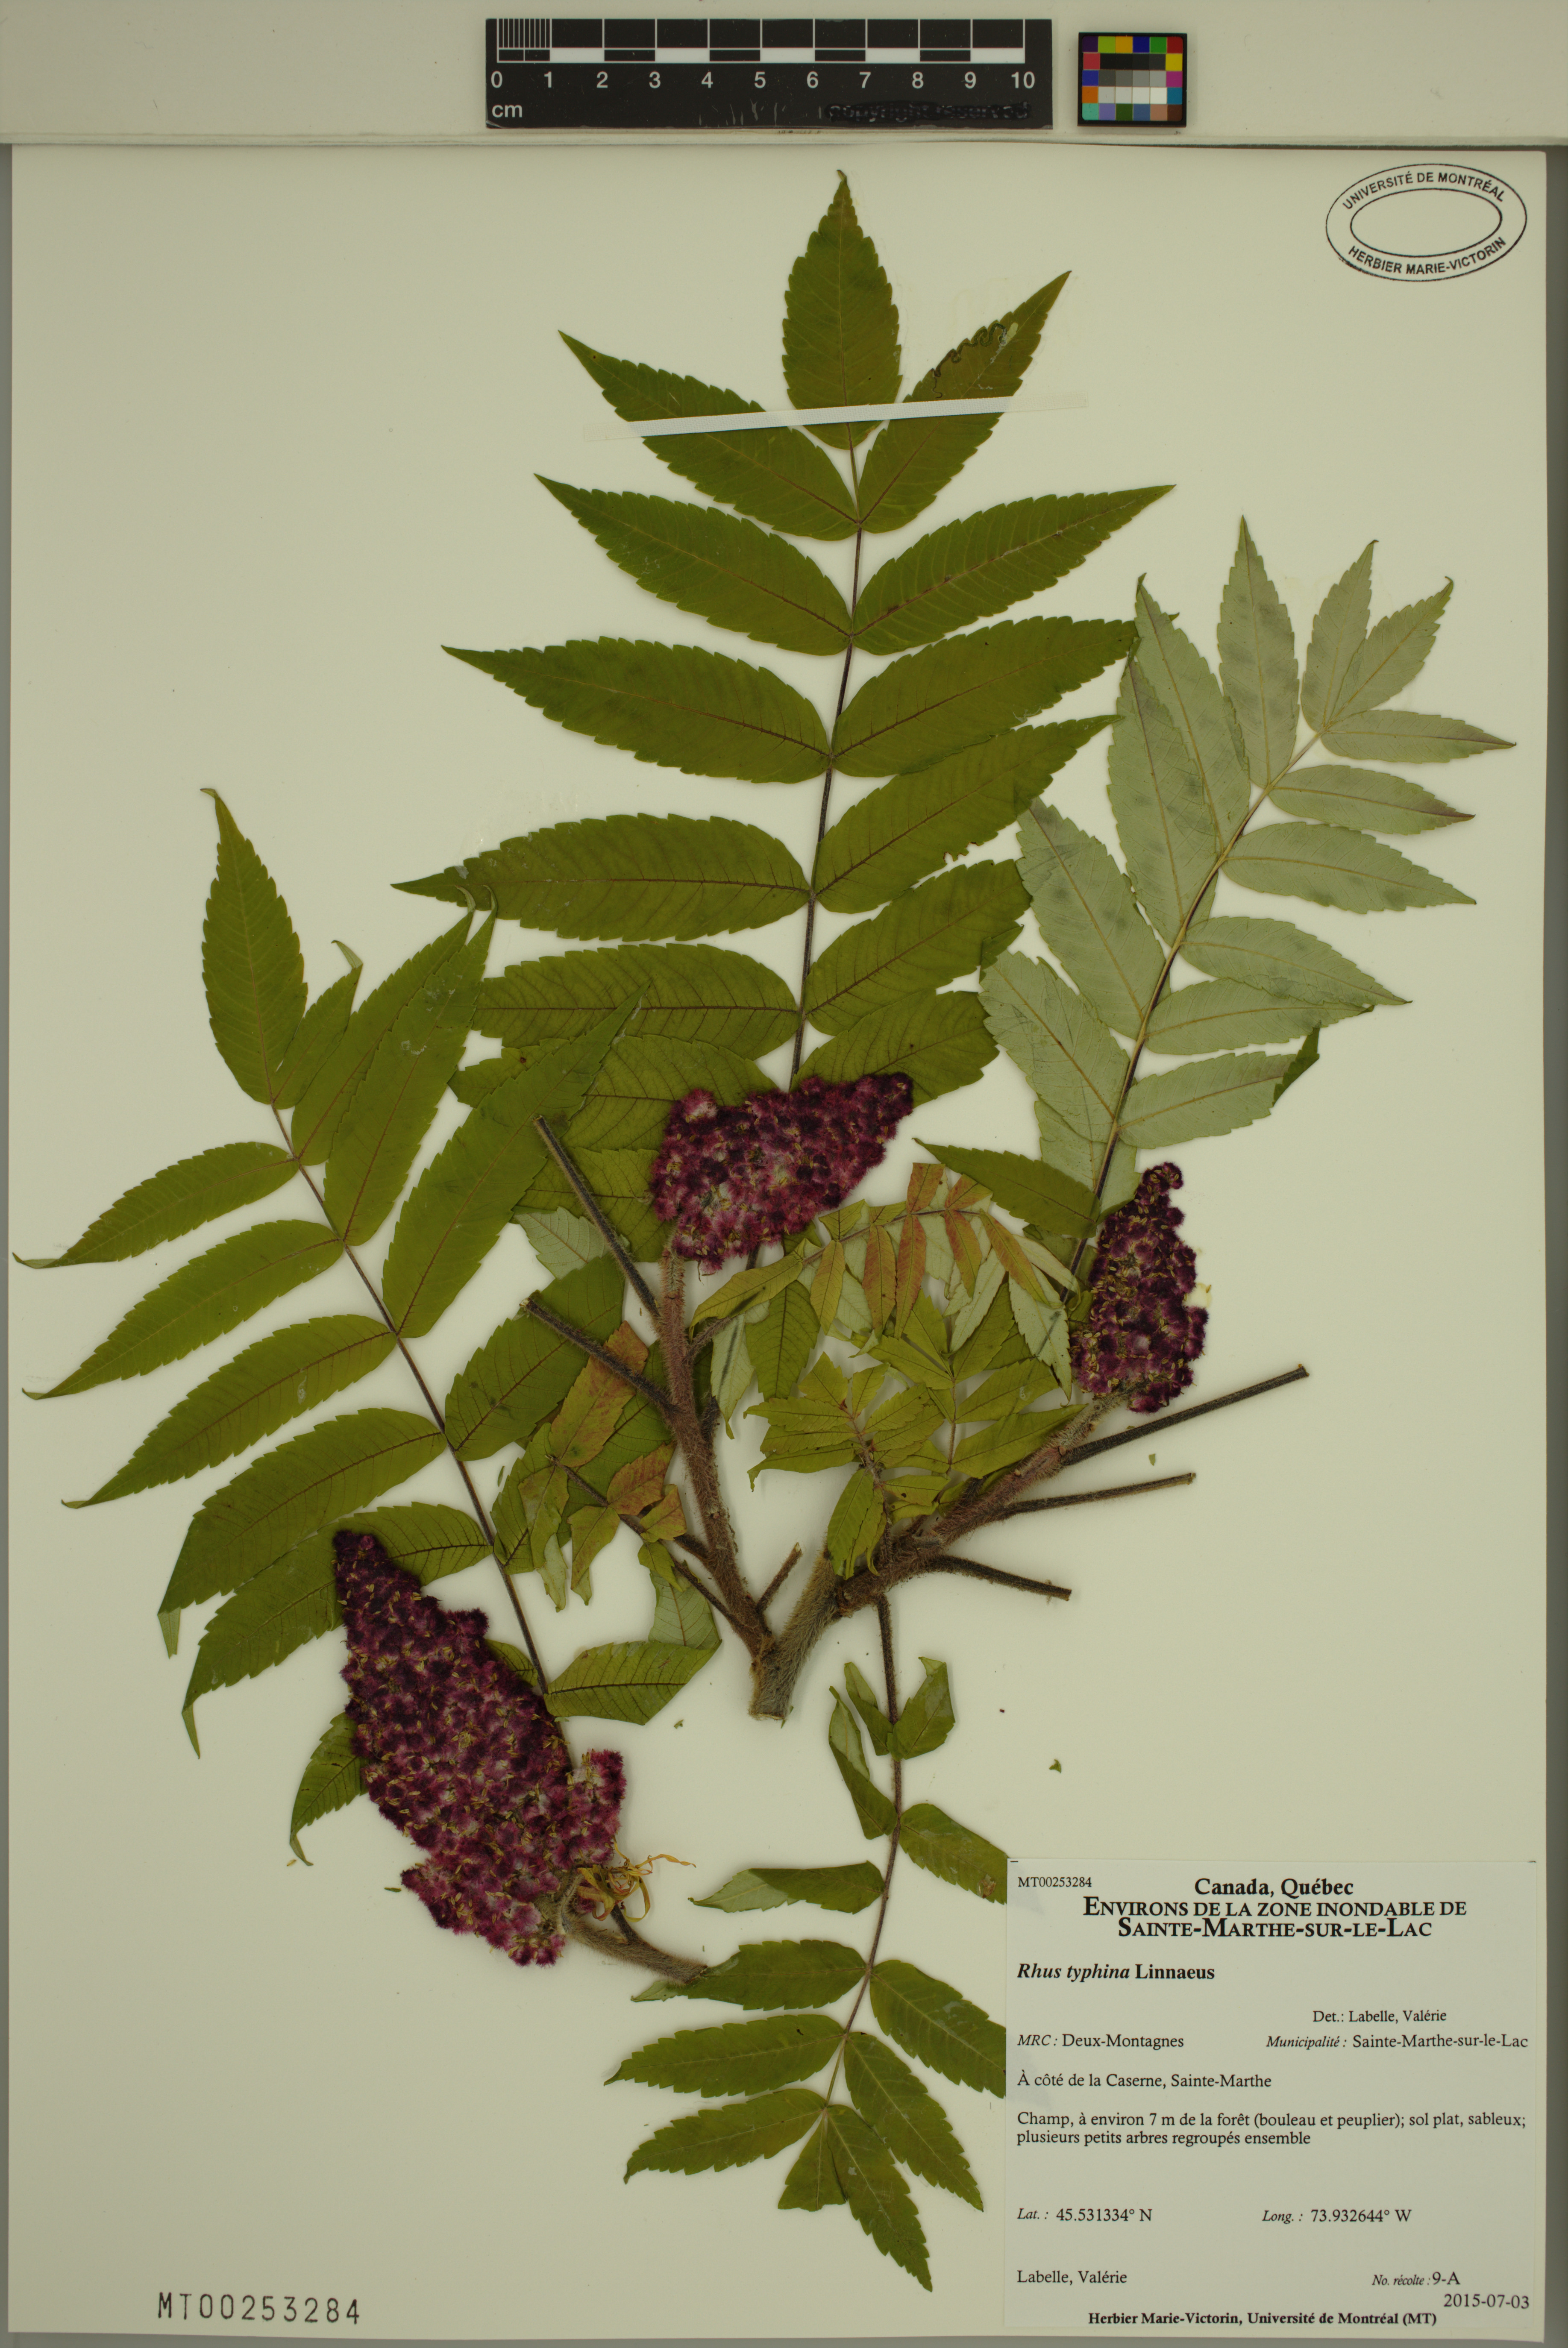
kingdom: Plantae
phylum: Tracheophyta
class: Magnoliopsida
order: Sapindales
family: Anacardiaceae
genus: Rhus
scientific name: Rhus typhina
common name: Staghorn sumac
